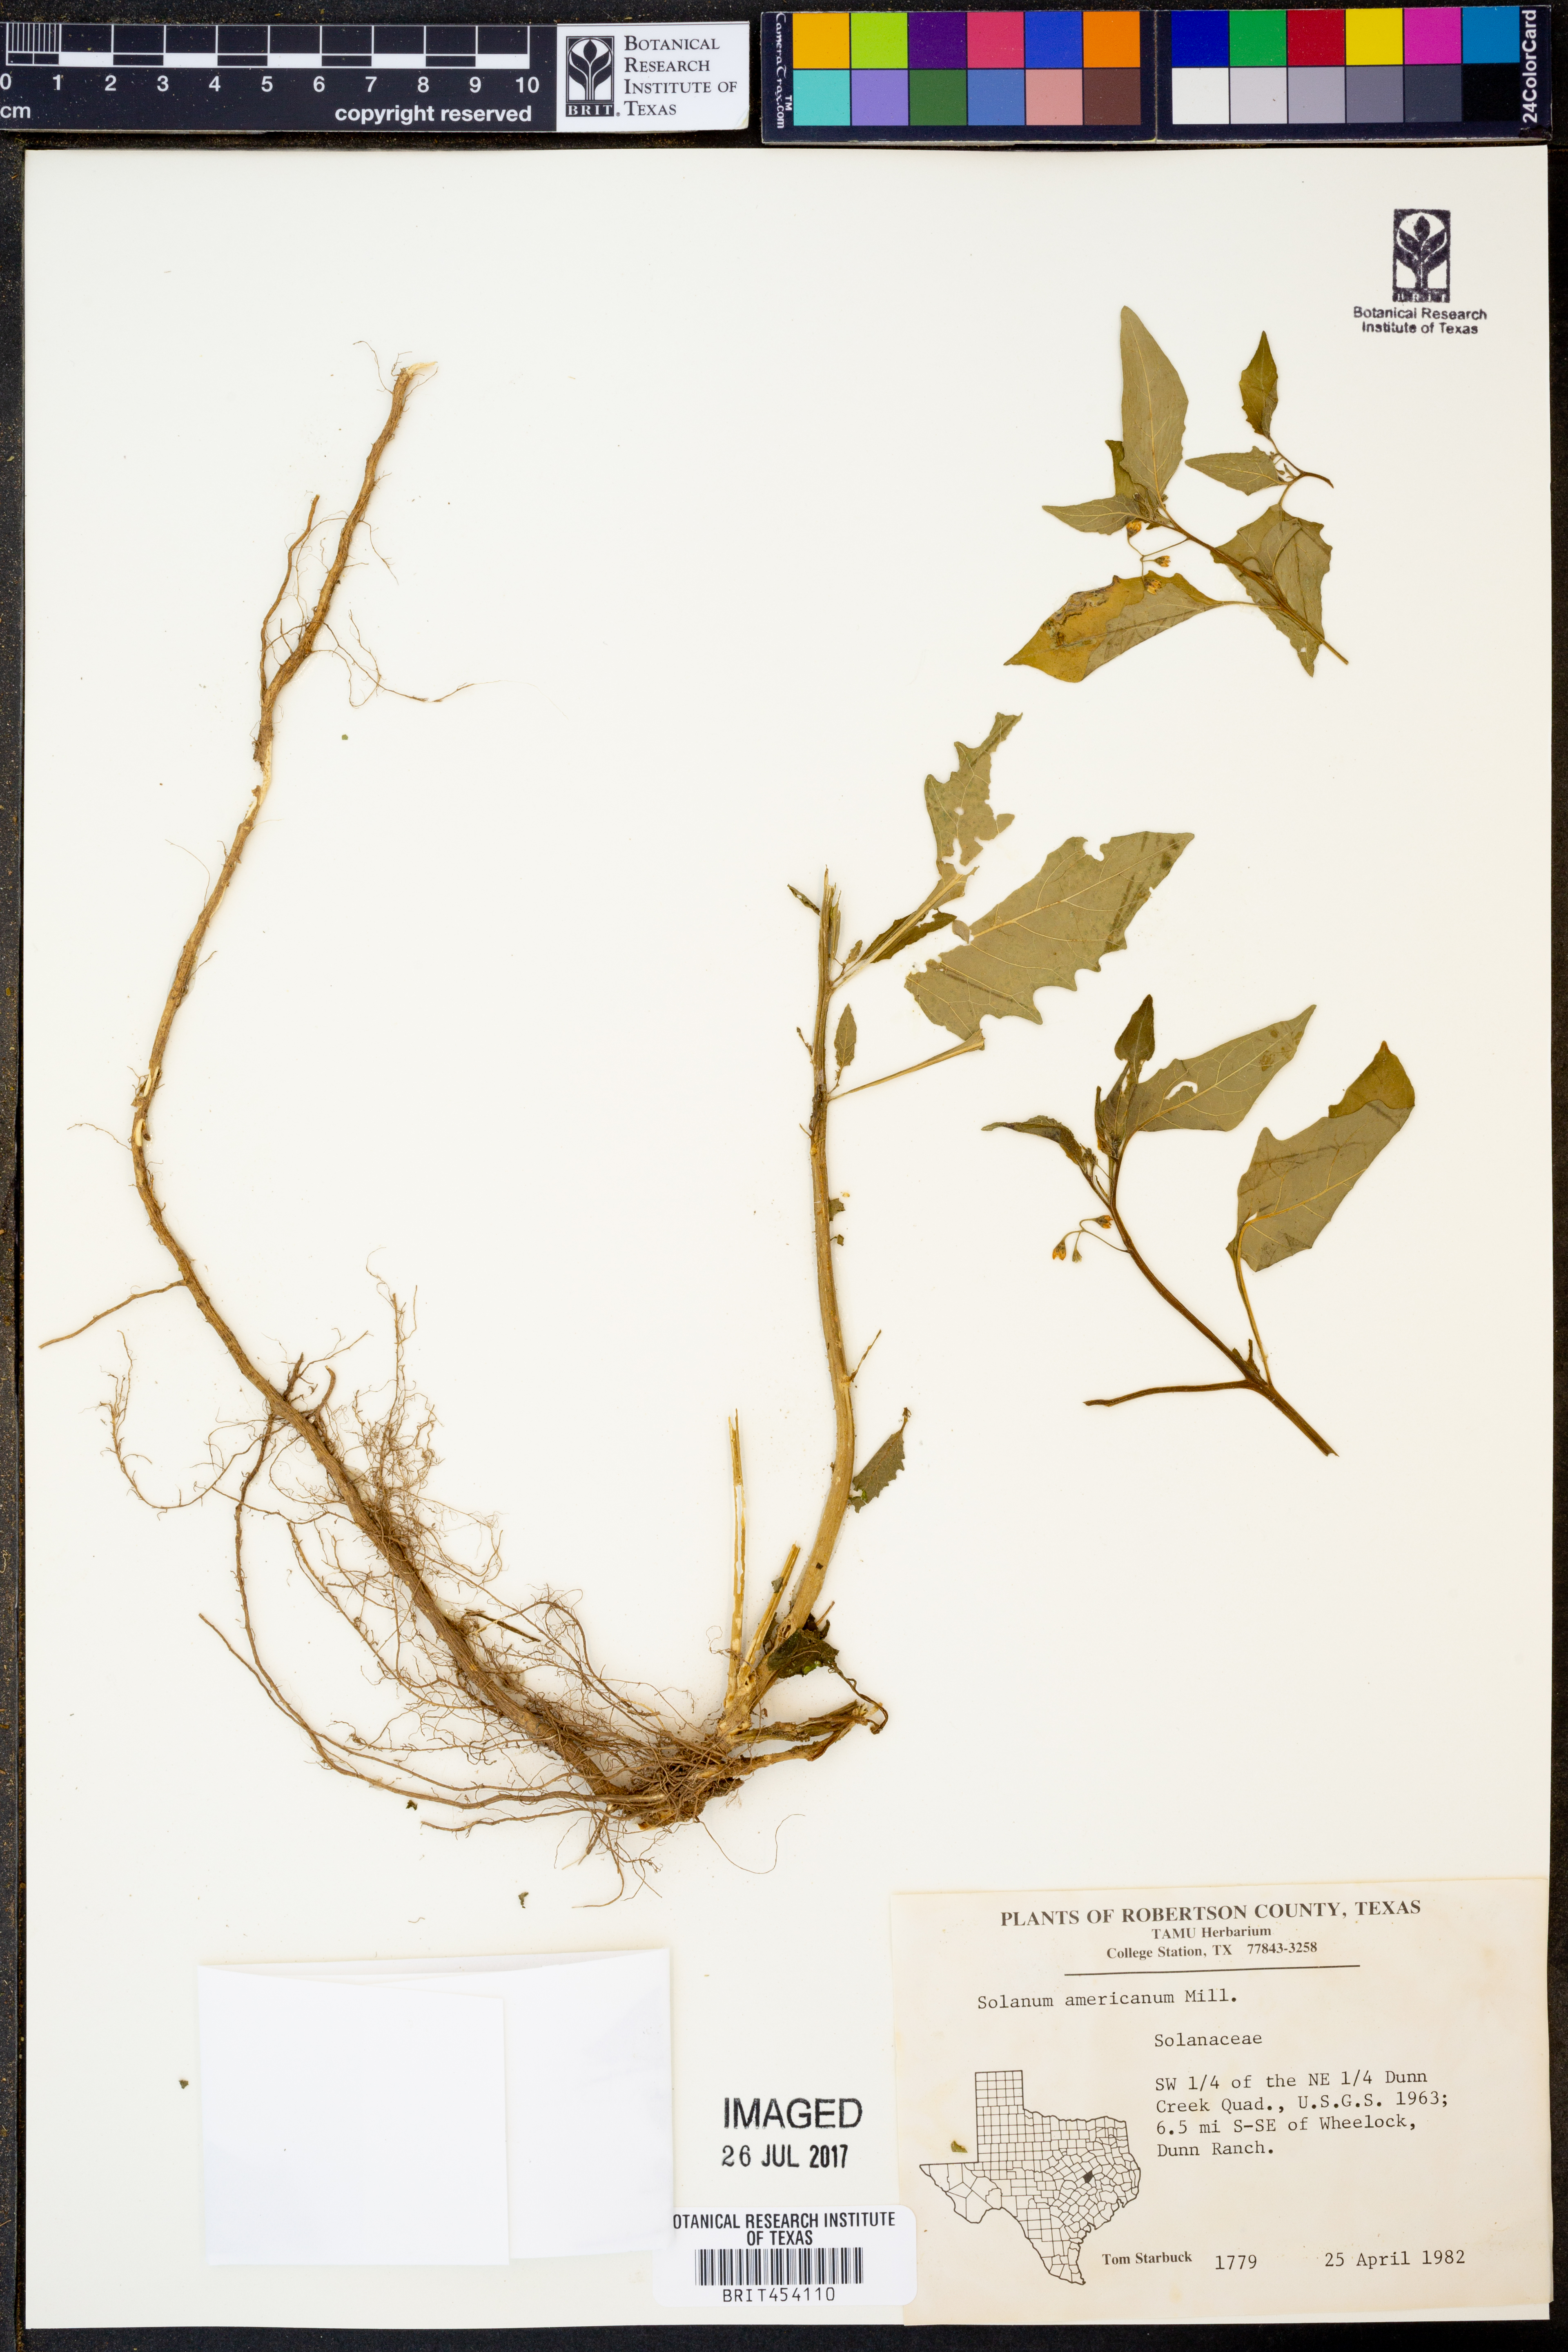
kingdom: Plantae
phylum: Tracheophyta
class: Magnoliopsida
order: Solanales
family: Solanaceae
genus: Solanum
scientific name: Solanum americanum
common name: American black nightshade
